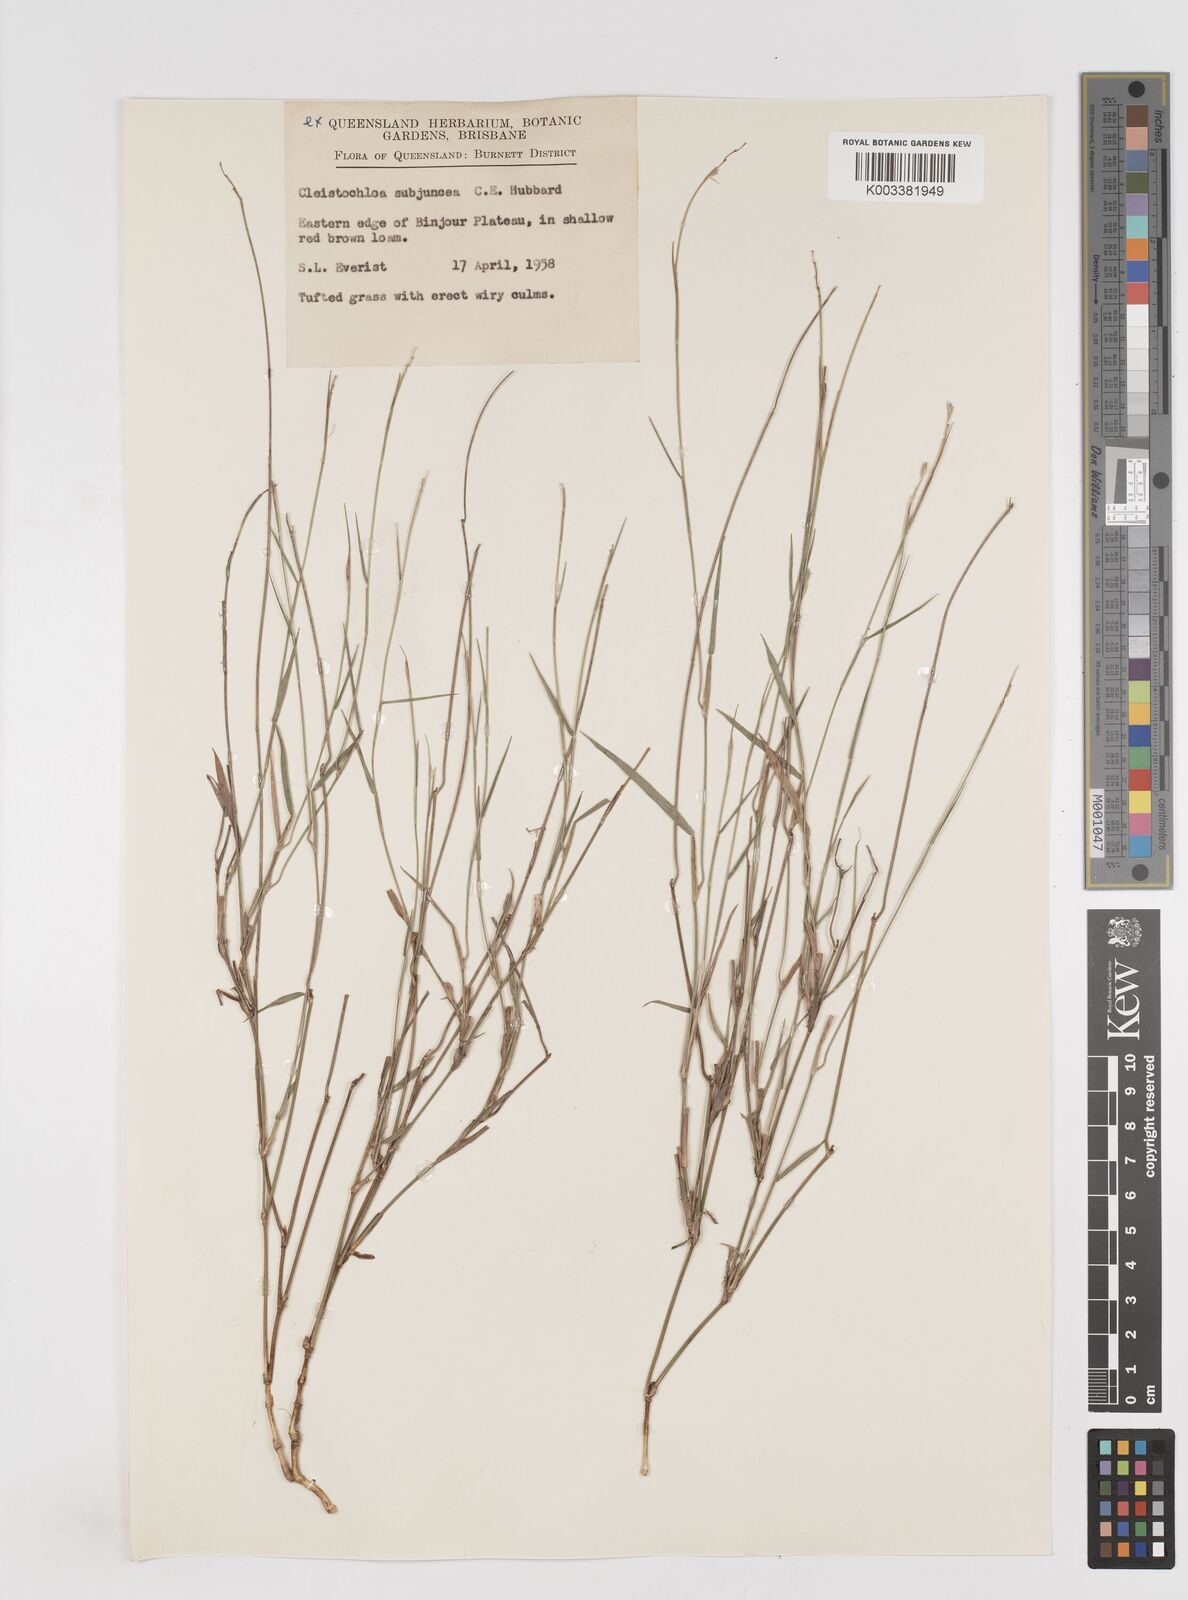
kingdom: Plantae
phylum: Tracheophyta
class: Liliopsida
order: Poales
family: Poaceae
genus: Cleistochloa
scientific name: Cleistochloa subjuncea
